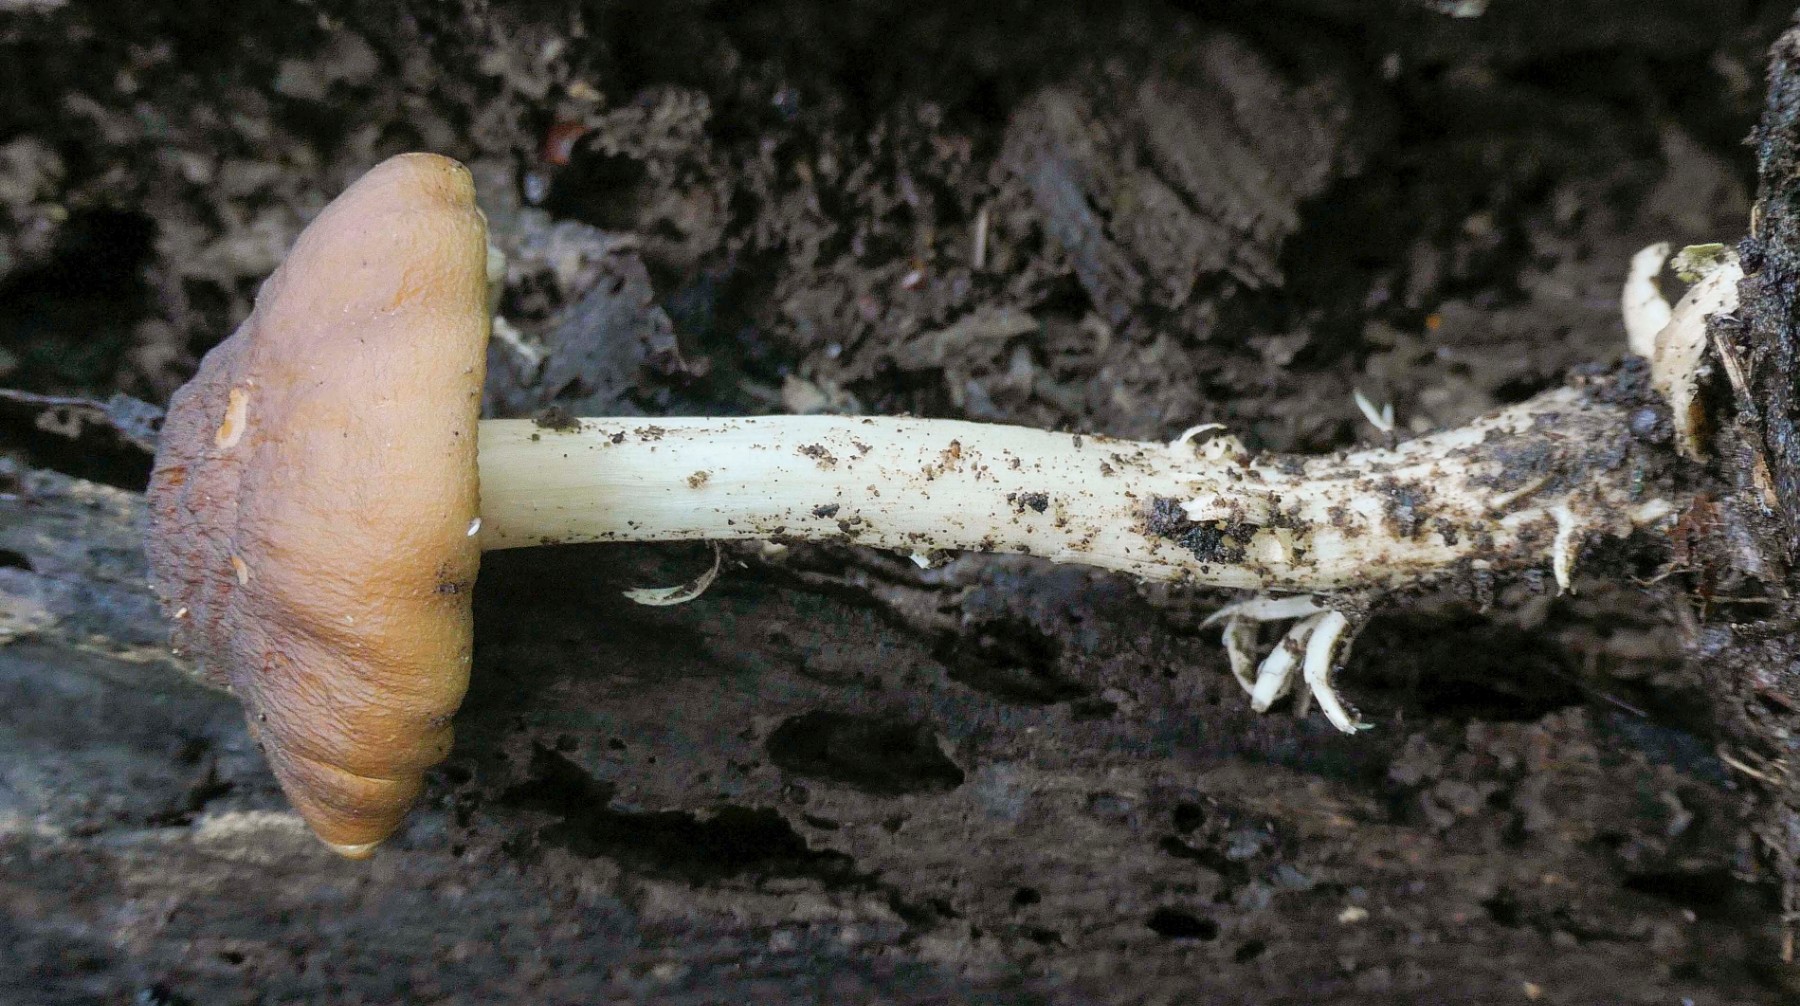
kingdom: Fungi
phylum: Basidiomycota
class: Agaricomycetes
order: Agaricales
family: Pluteaceae
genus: Pluteus
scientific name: Pluteus phlebophorus
